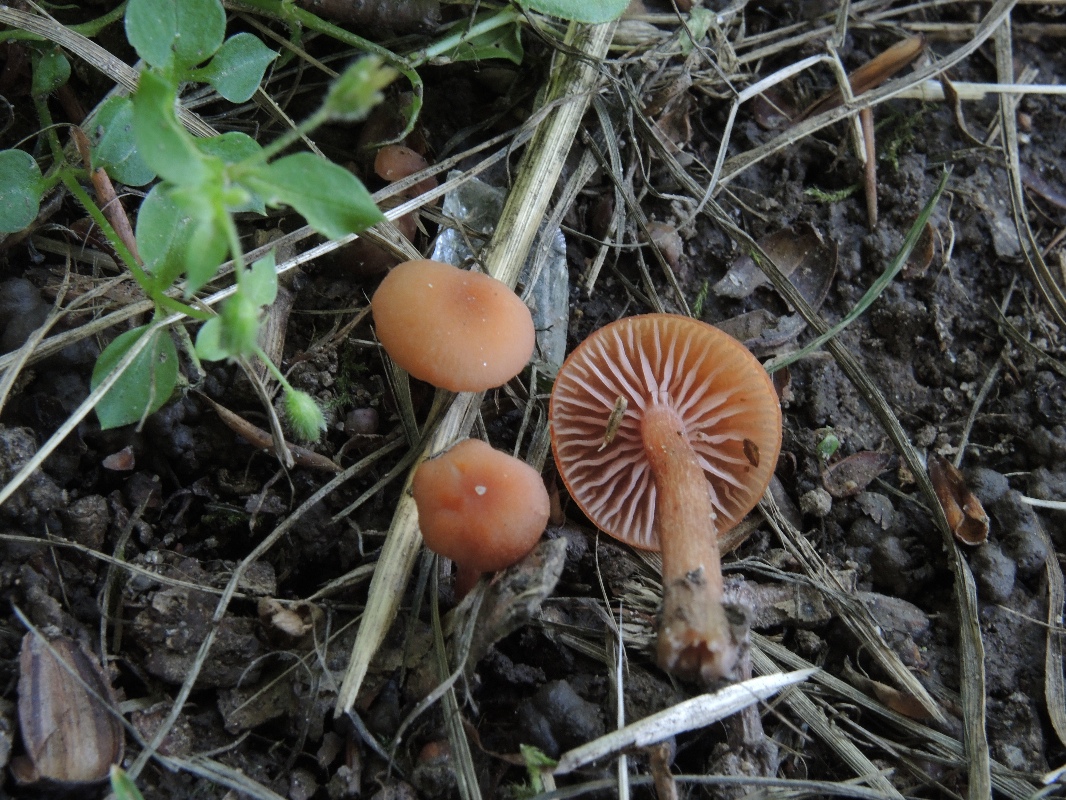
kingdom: Fungi
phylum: Basidiomycota
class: Agaricomycetes
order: Agaricales
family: Hydnangiaceae
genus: Laccaria
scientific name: Laccaria laccata
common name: rød ametysthat
